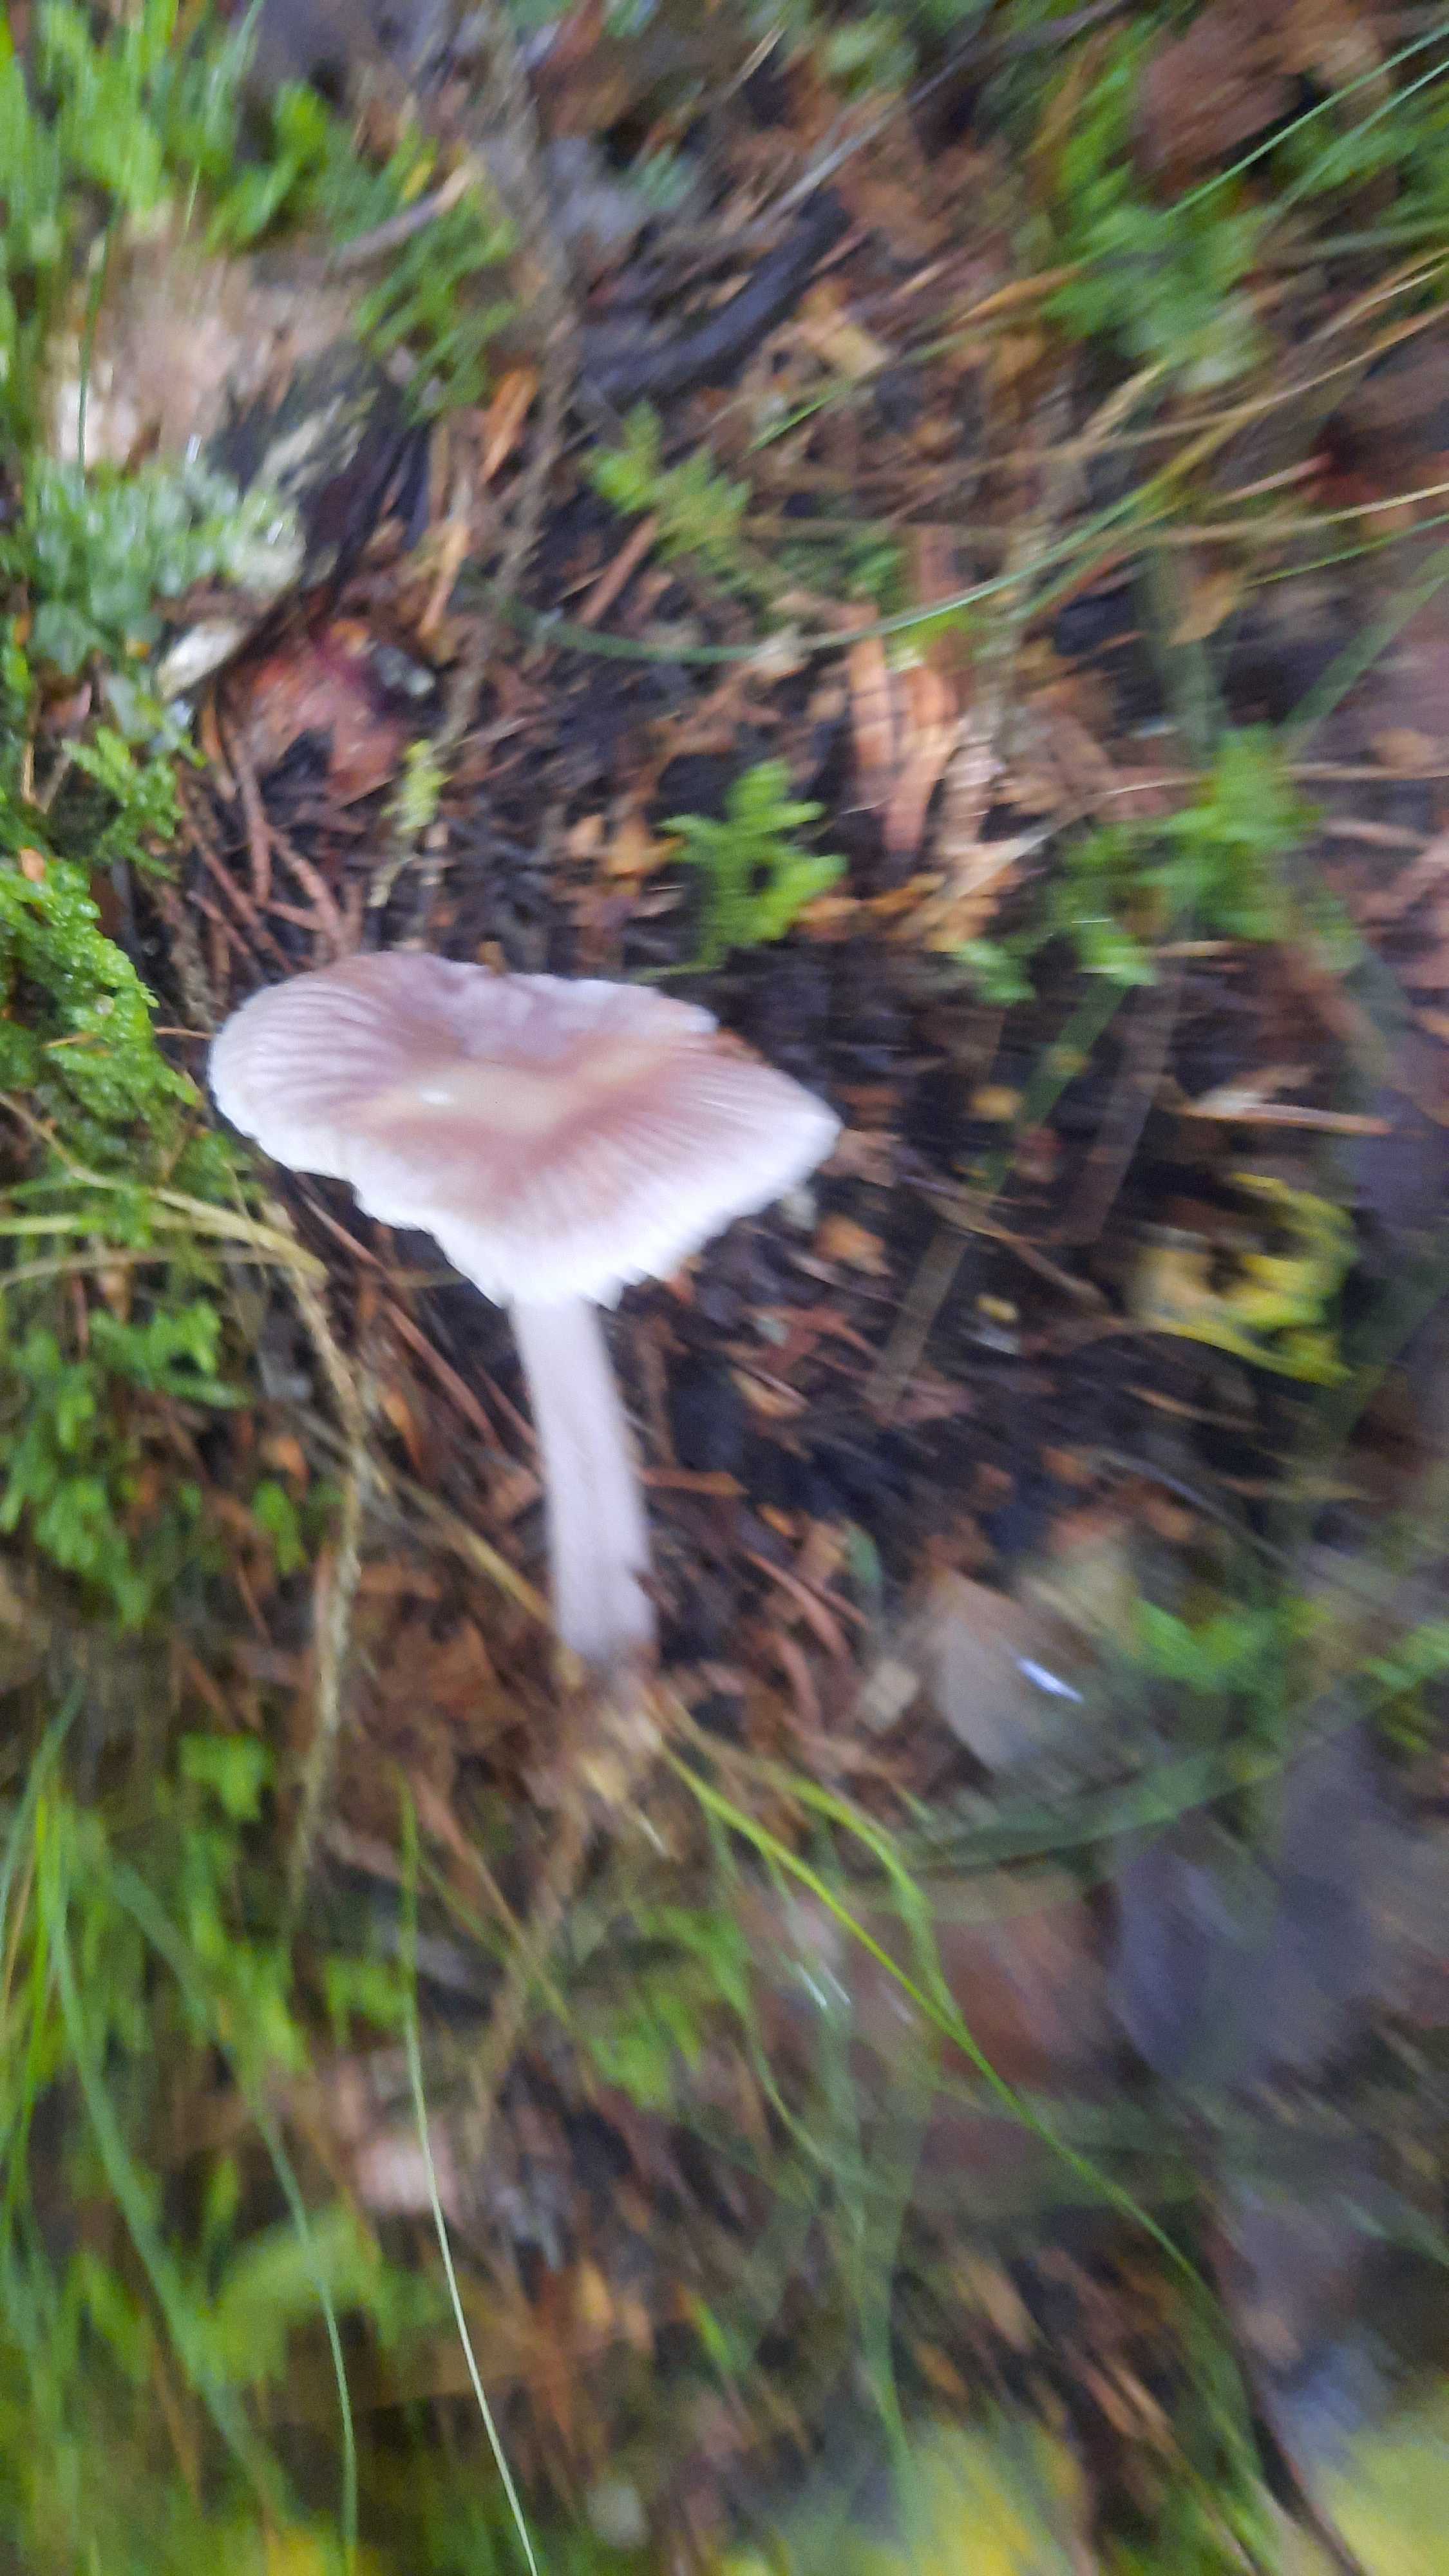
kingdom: Fungi
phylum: Basidiomycota
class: Agaricomycetes
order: Agaricales
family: Mycenaceae
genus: Mycena
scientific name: Mycena
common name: huesvamp
